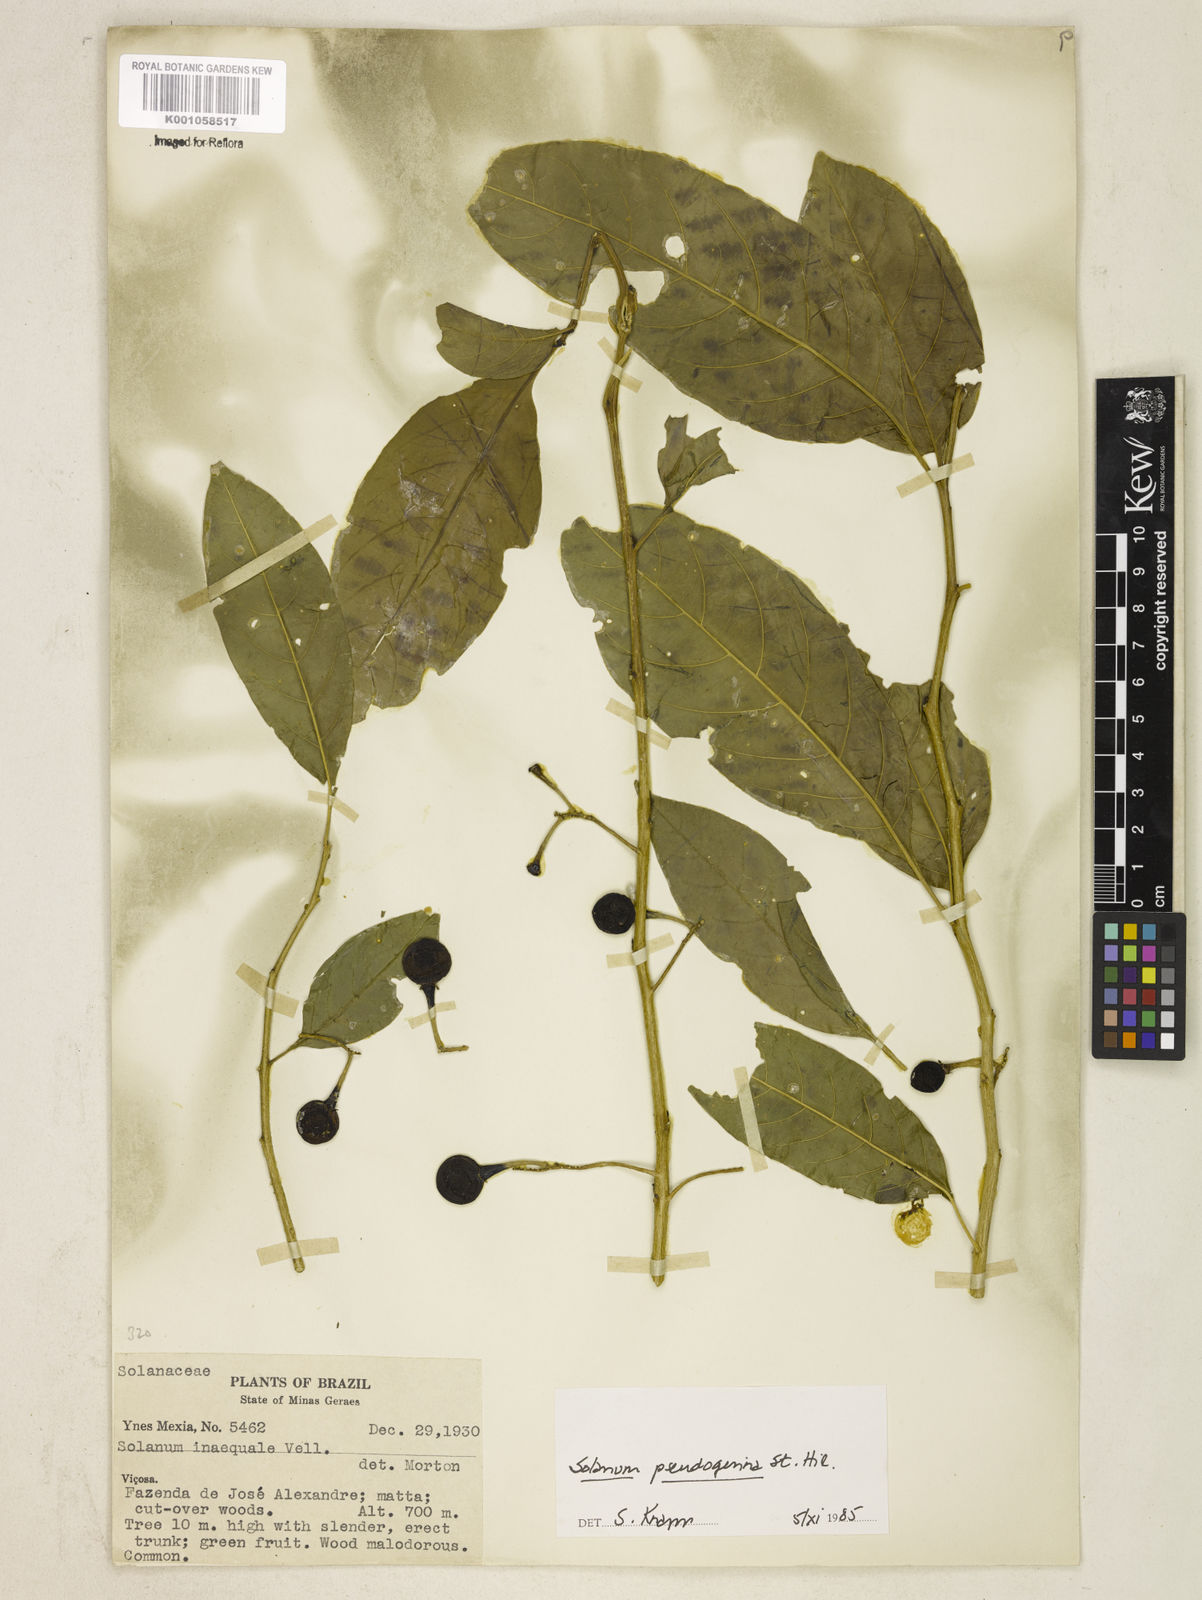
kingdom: Plantae
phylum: Tracheophyta
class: Magnoliopsida
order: Solanales
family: Solanaceae
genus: Solanum
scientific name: Solanum pseudoquina
